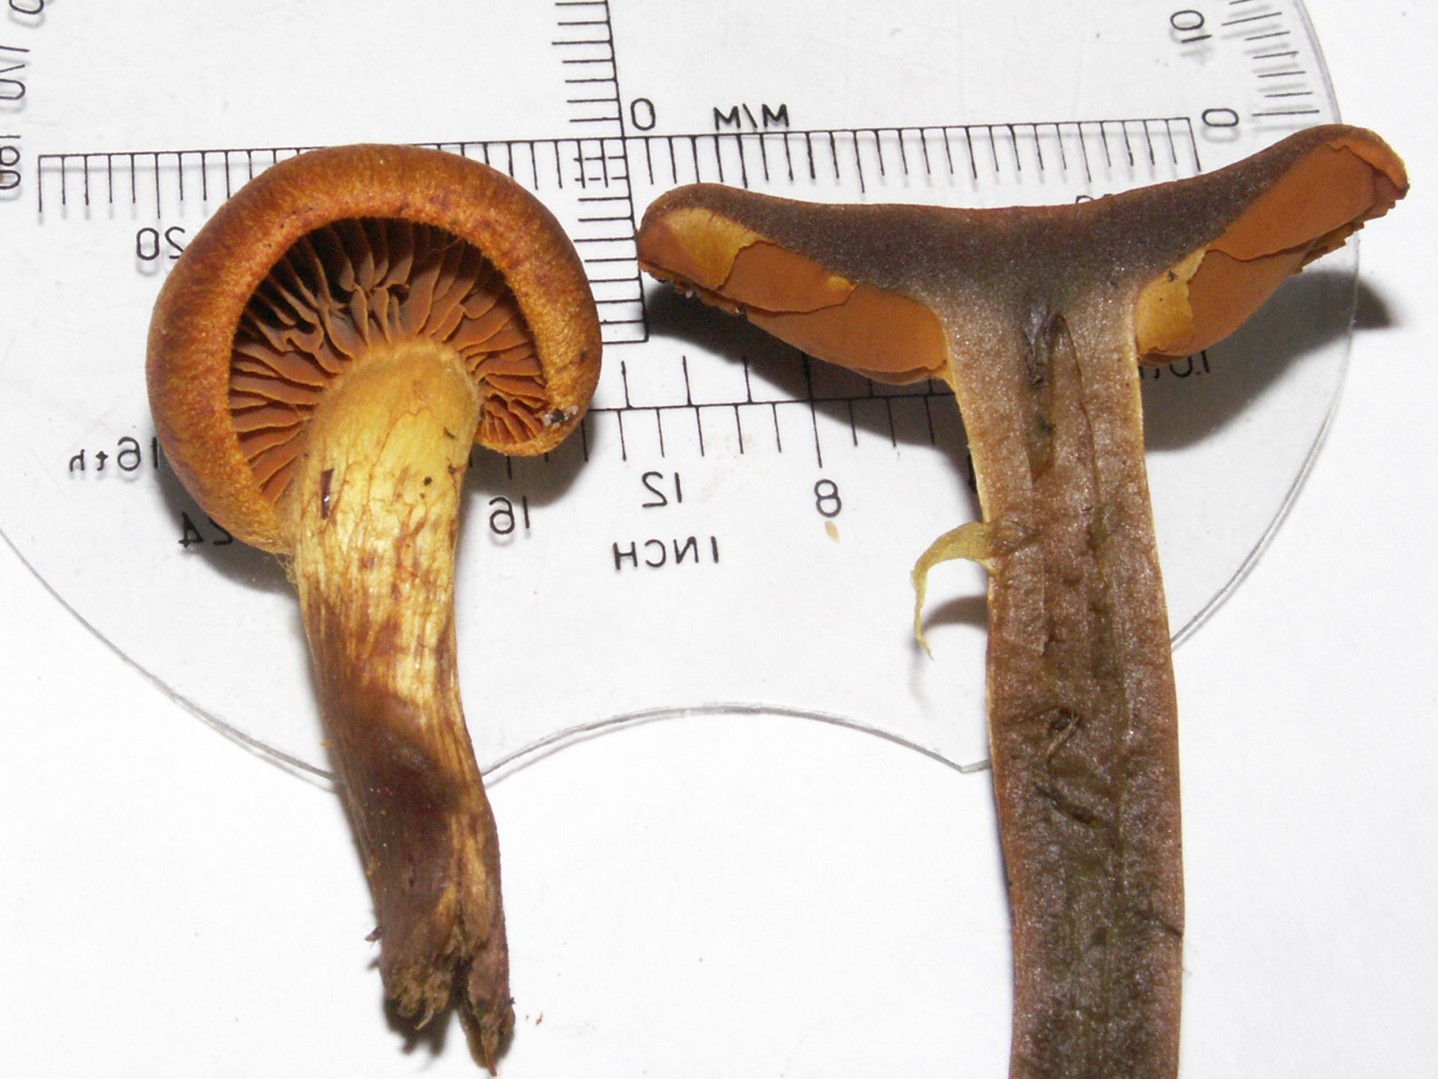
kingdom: Fungi
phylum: Basidiomycota
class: Agaricomycetes
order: Agaricales
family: Cortinariaceae
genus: Cortinarius
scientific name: Cortinarius malicorius
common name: grønkødet slørhat
